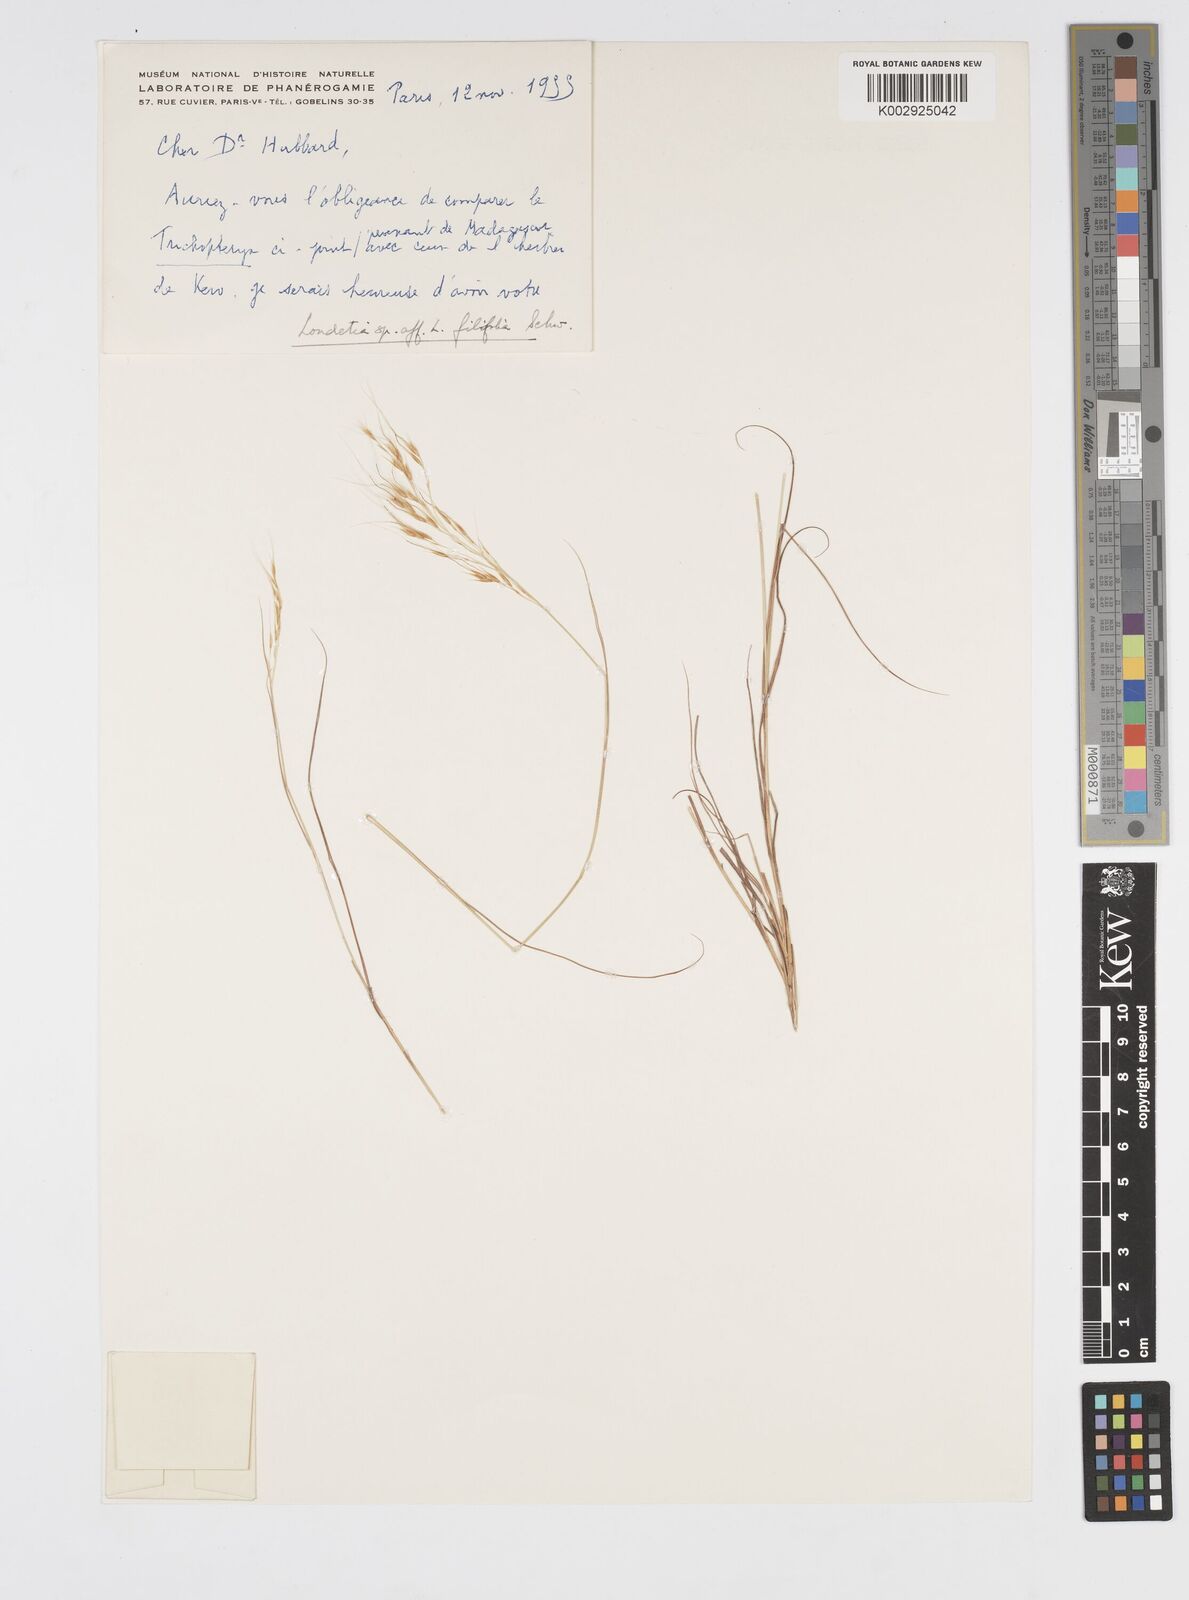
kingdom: Plantae
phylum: Tracheophyta
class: Liliopsida
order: Poales
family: Poaceae
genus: Loudetia
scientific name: Loudetia flavida
